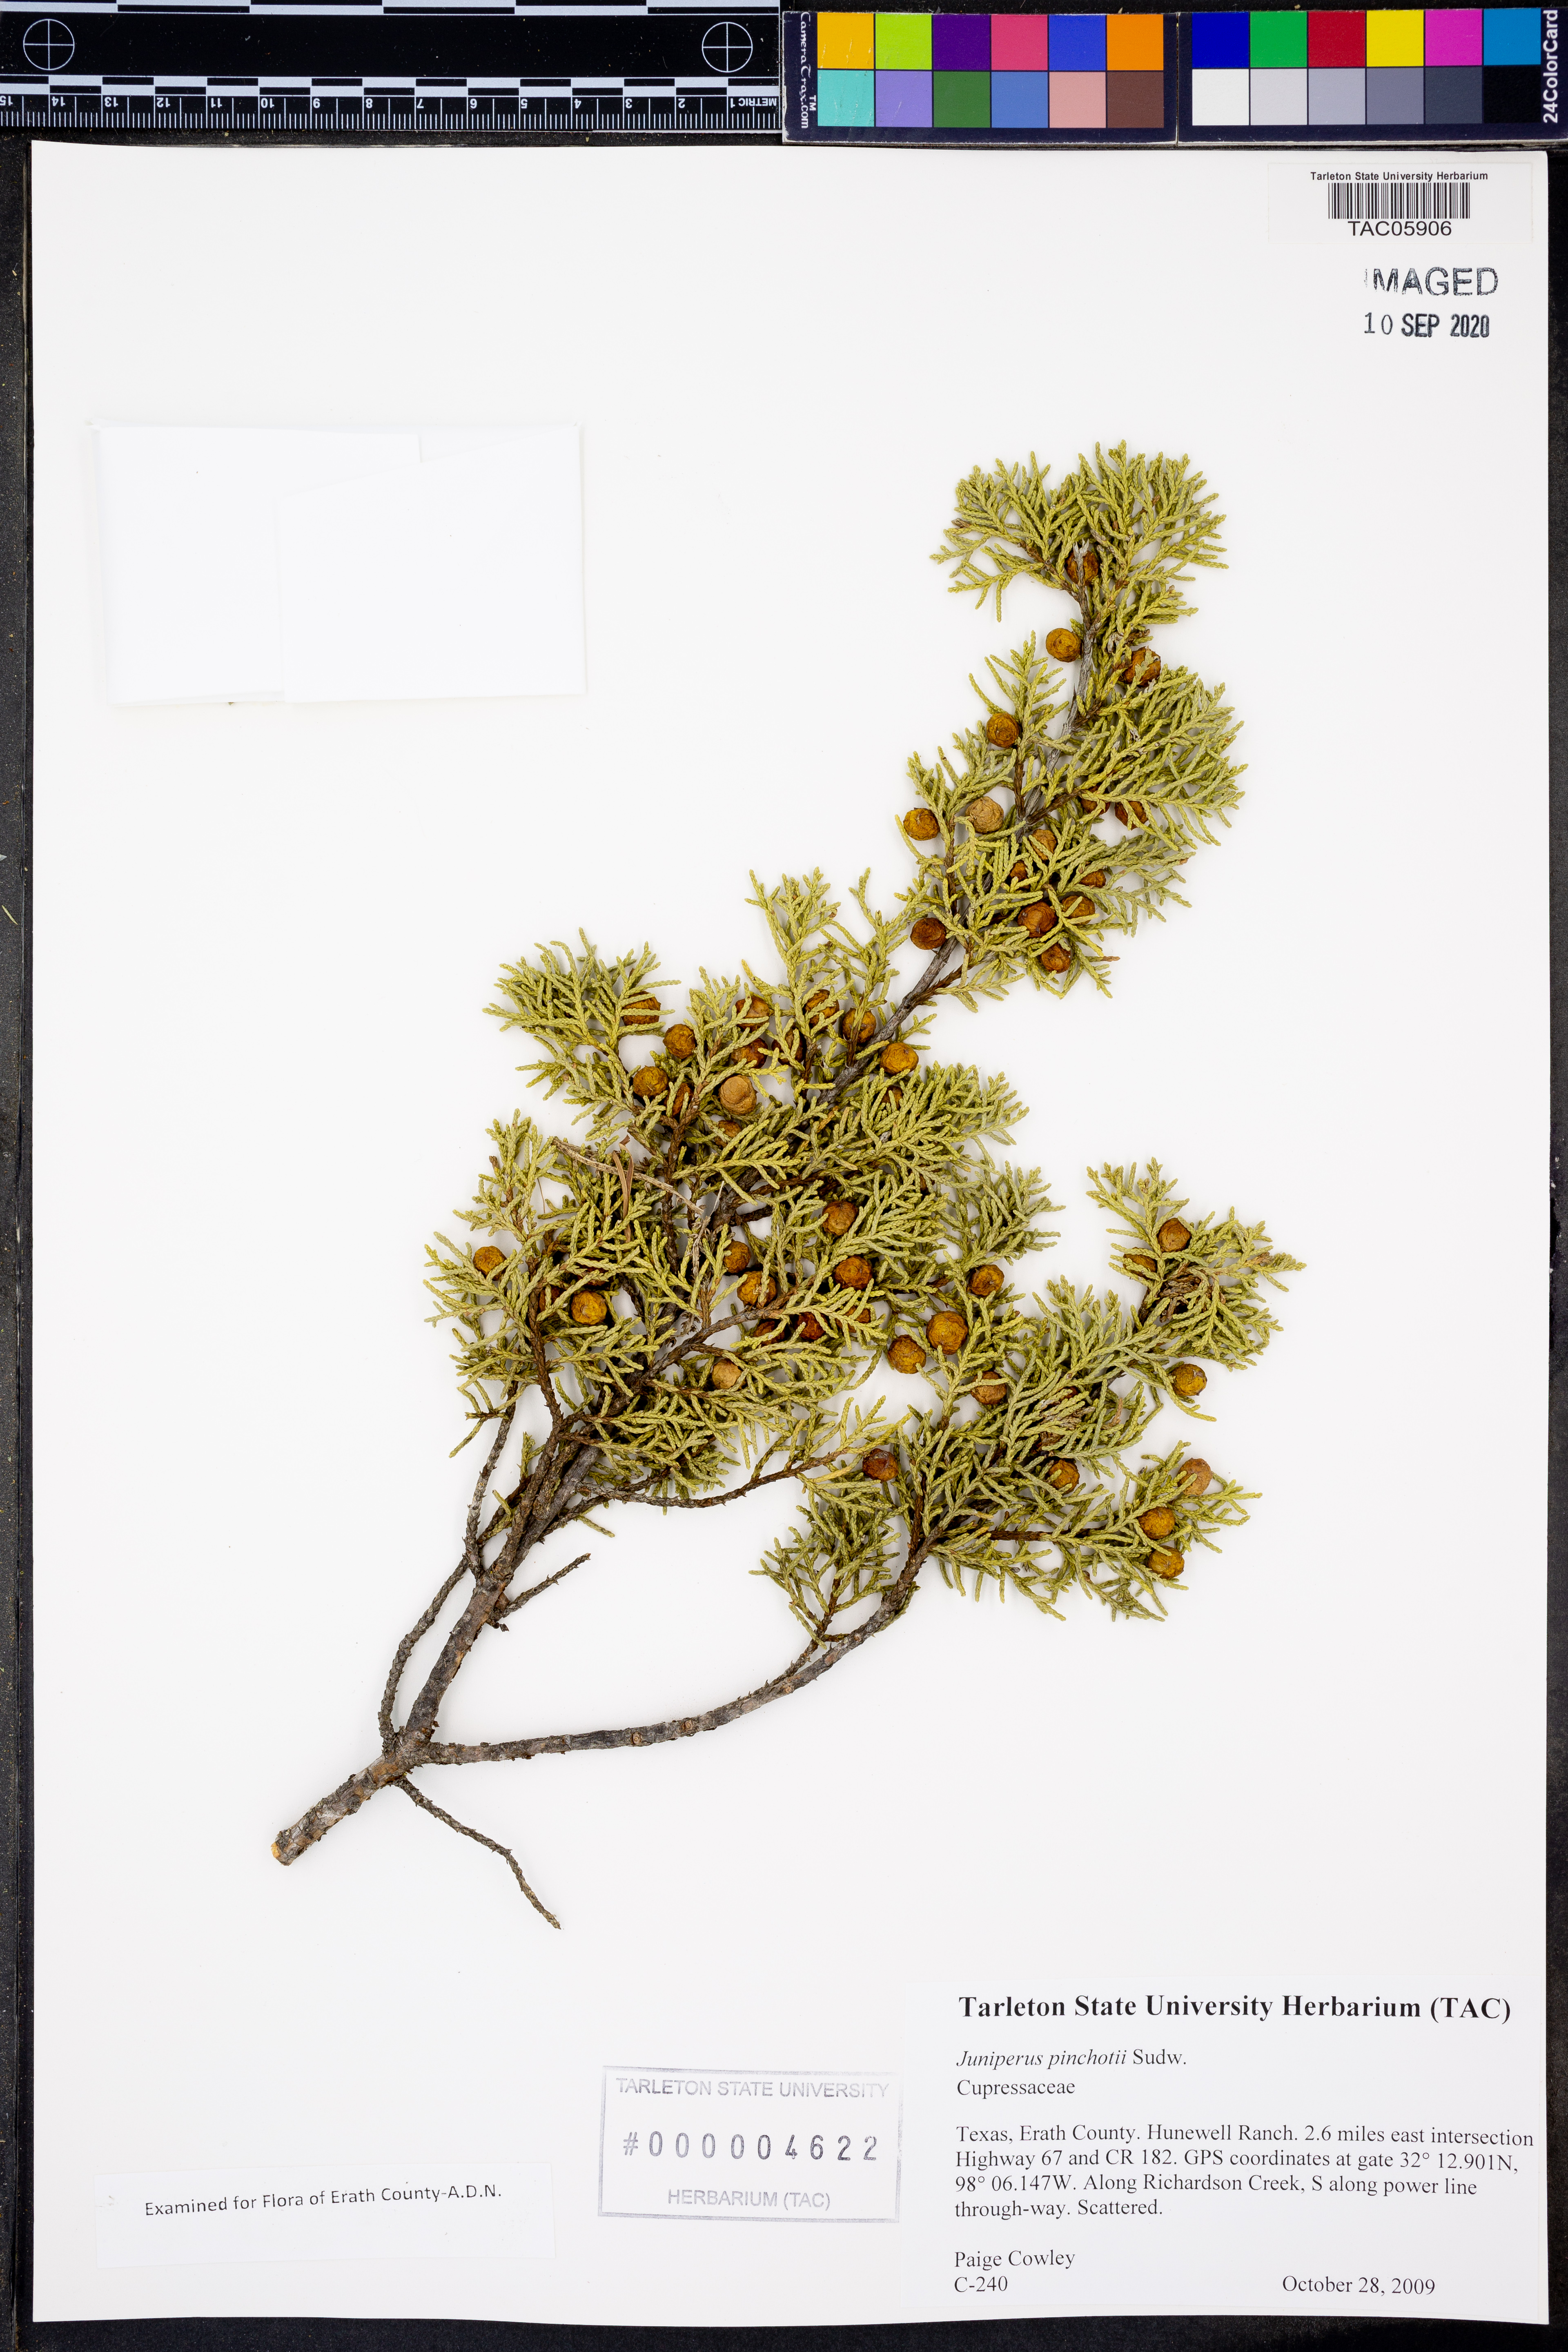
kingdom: Plantae
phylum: Tracheophyta
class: Pinopsida
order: Pinales
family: Cupressaceae
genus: Juniperus
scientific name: Juniperus pinchotii
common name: Pinchot juniper
